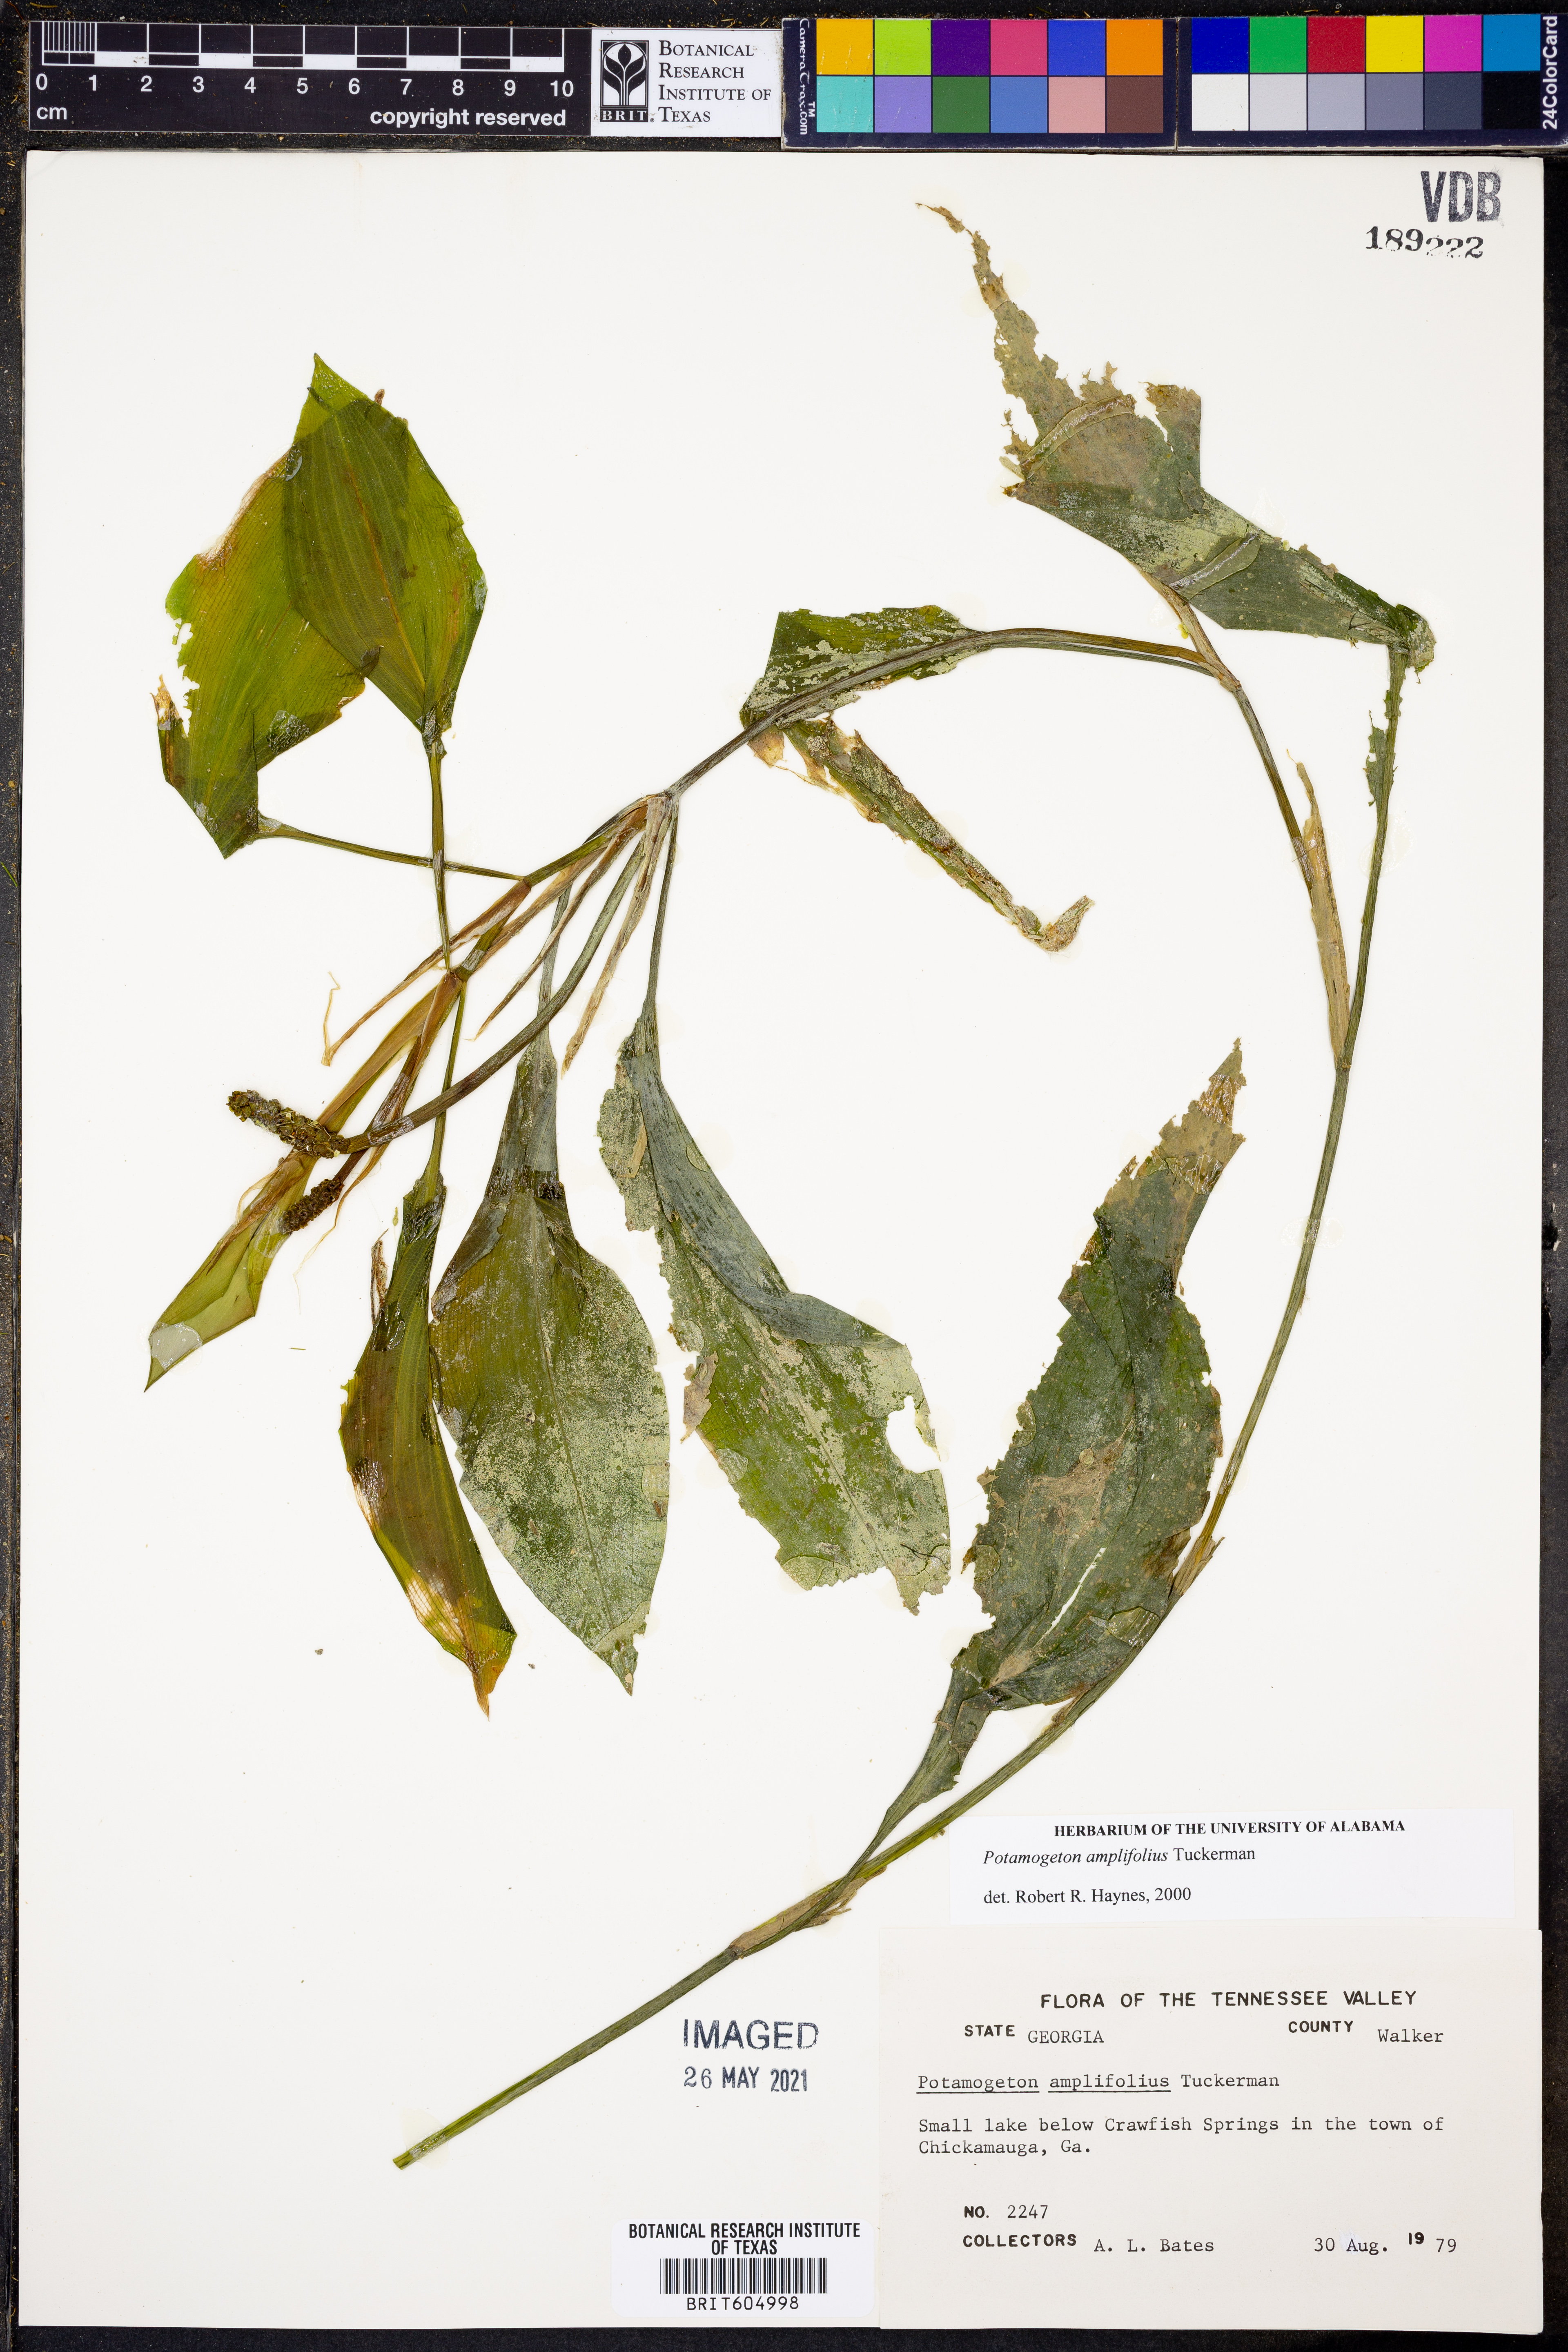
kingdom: Plantae
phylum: Tracheophyta
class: Liliopsida
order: Alismatales
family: Potamogetonaceae
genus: Potamogeton
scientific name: Potamogeton amplifolius
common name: Broad-leaved pondweed
